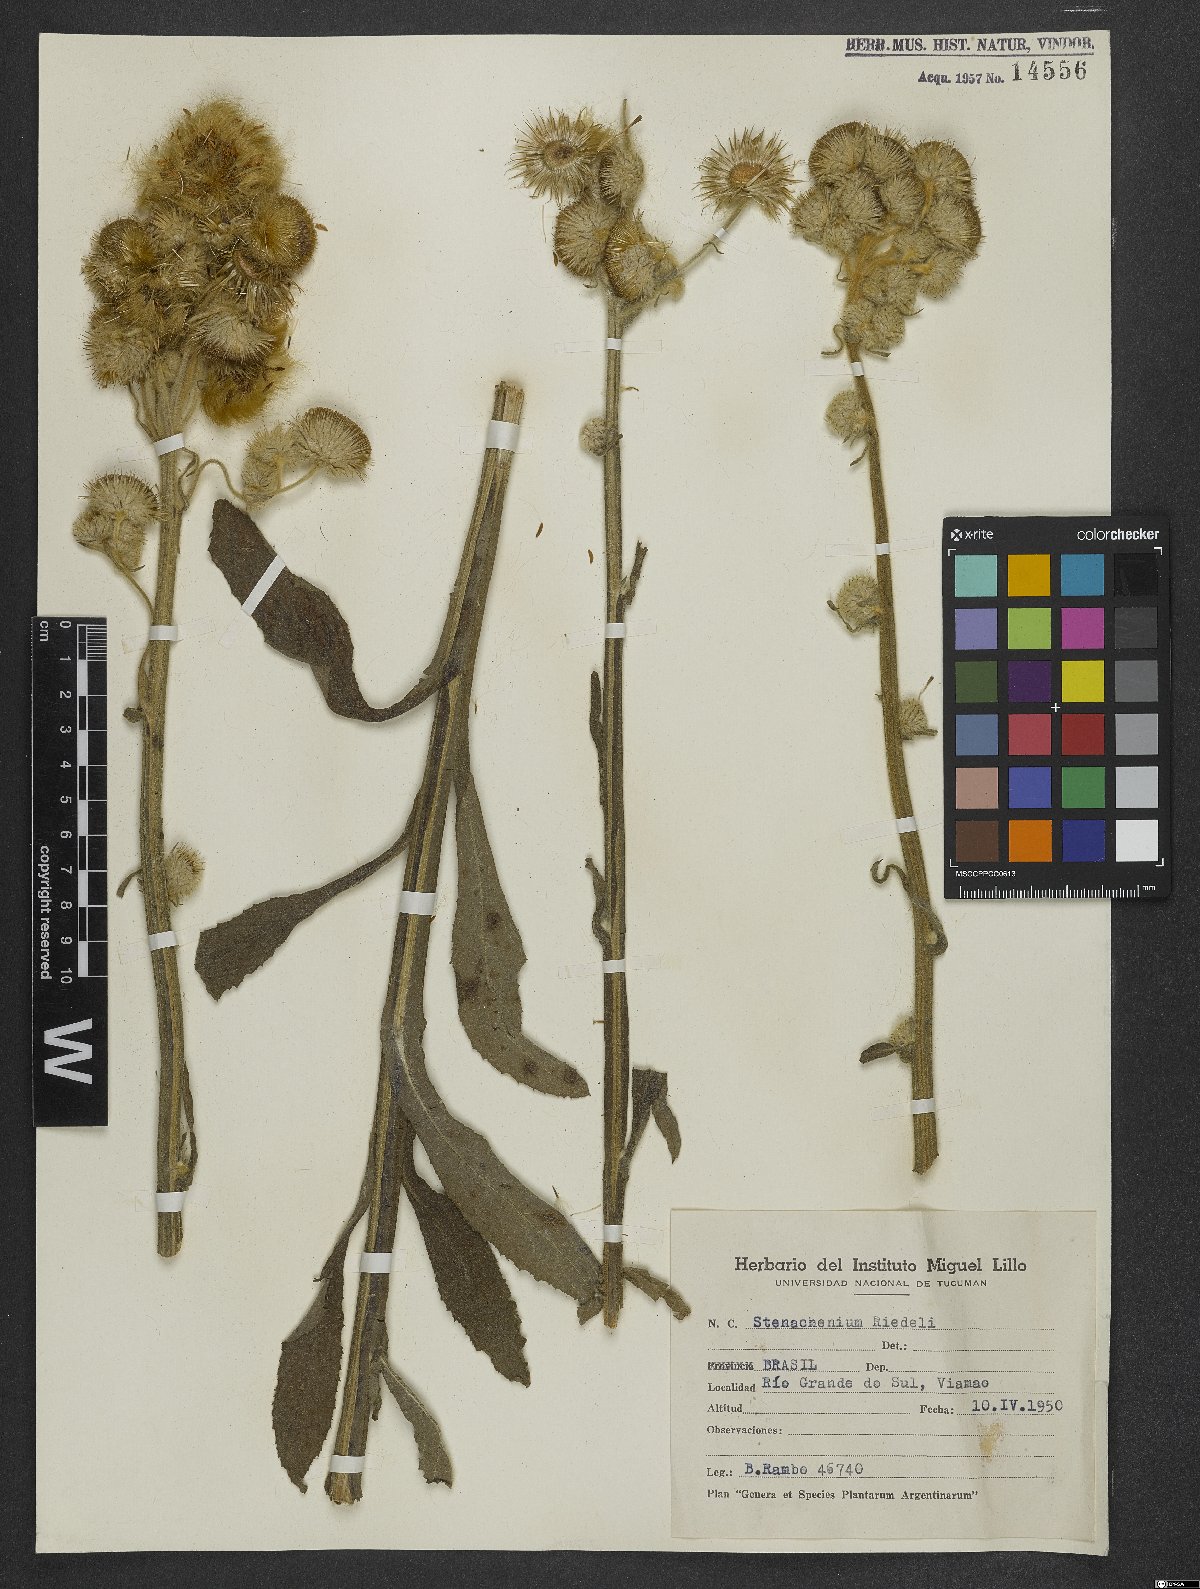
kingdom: Plantae
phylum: Tracheophyta
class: Magnoliopsida
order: Asterales
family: Asteraceae
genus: Stenachaenium
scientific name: Stenachaenium riedelii
